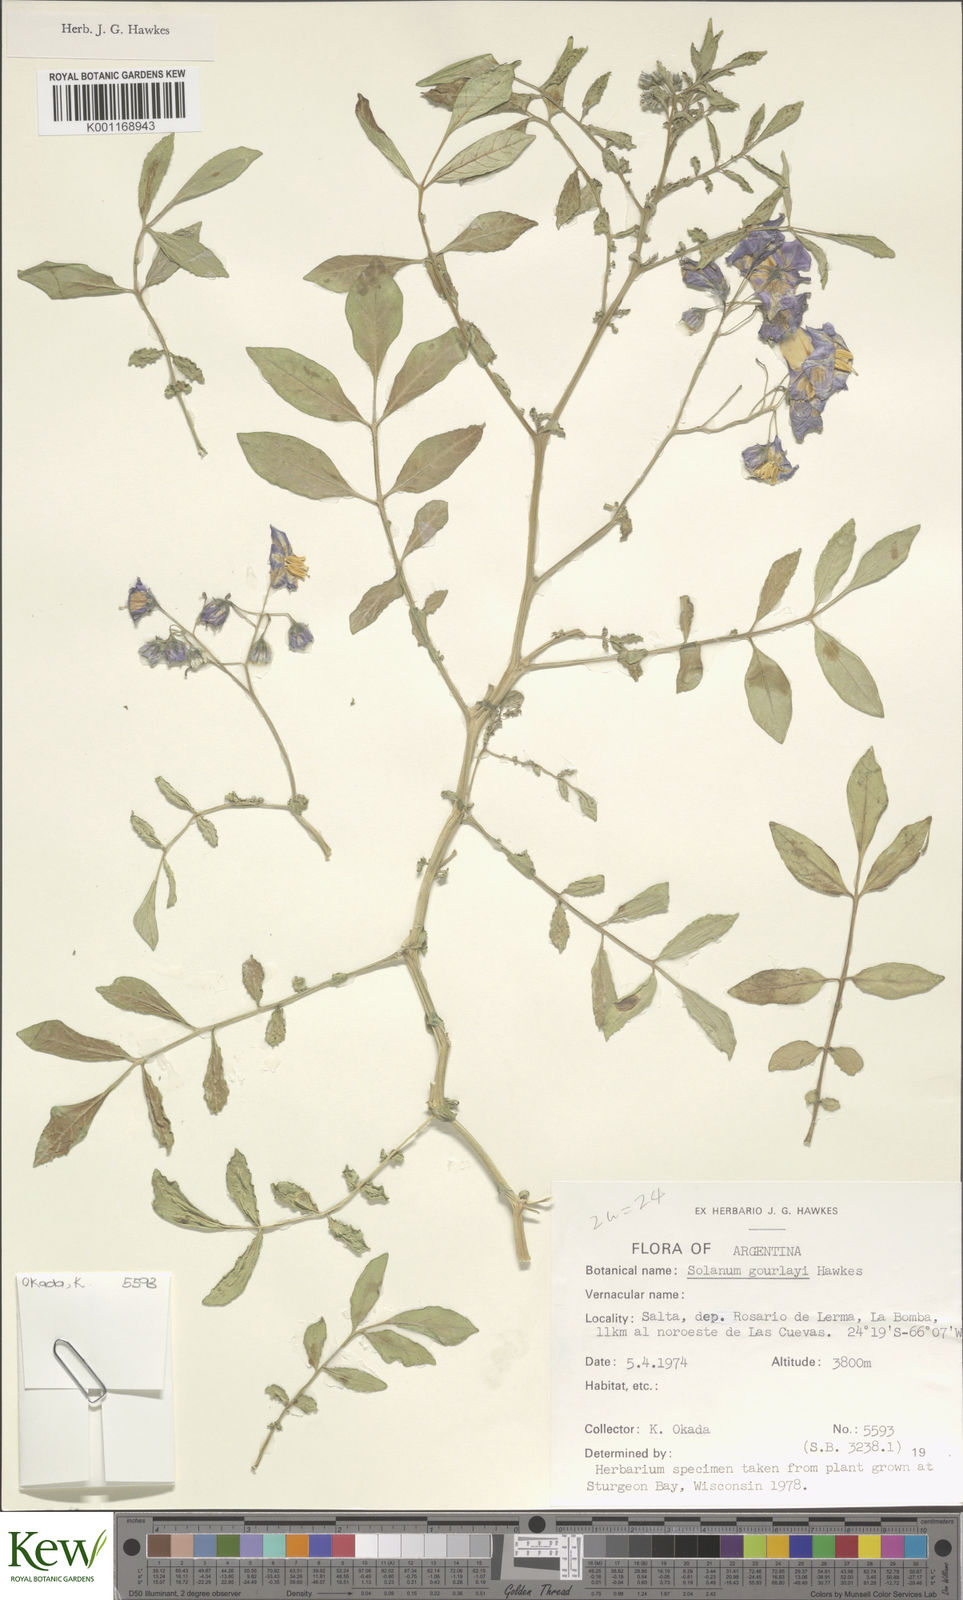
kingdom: Plantae
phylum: Tracheophyta
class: Magnoliopsida
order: Solanales
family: Solanaceae
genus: Solanum
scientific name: Solanum brevicaule
